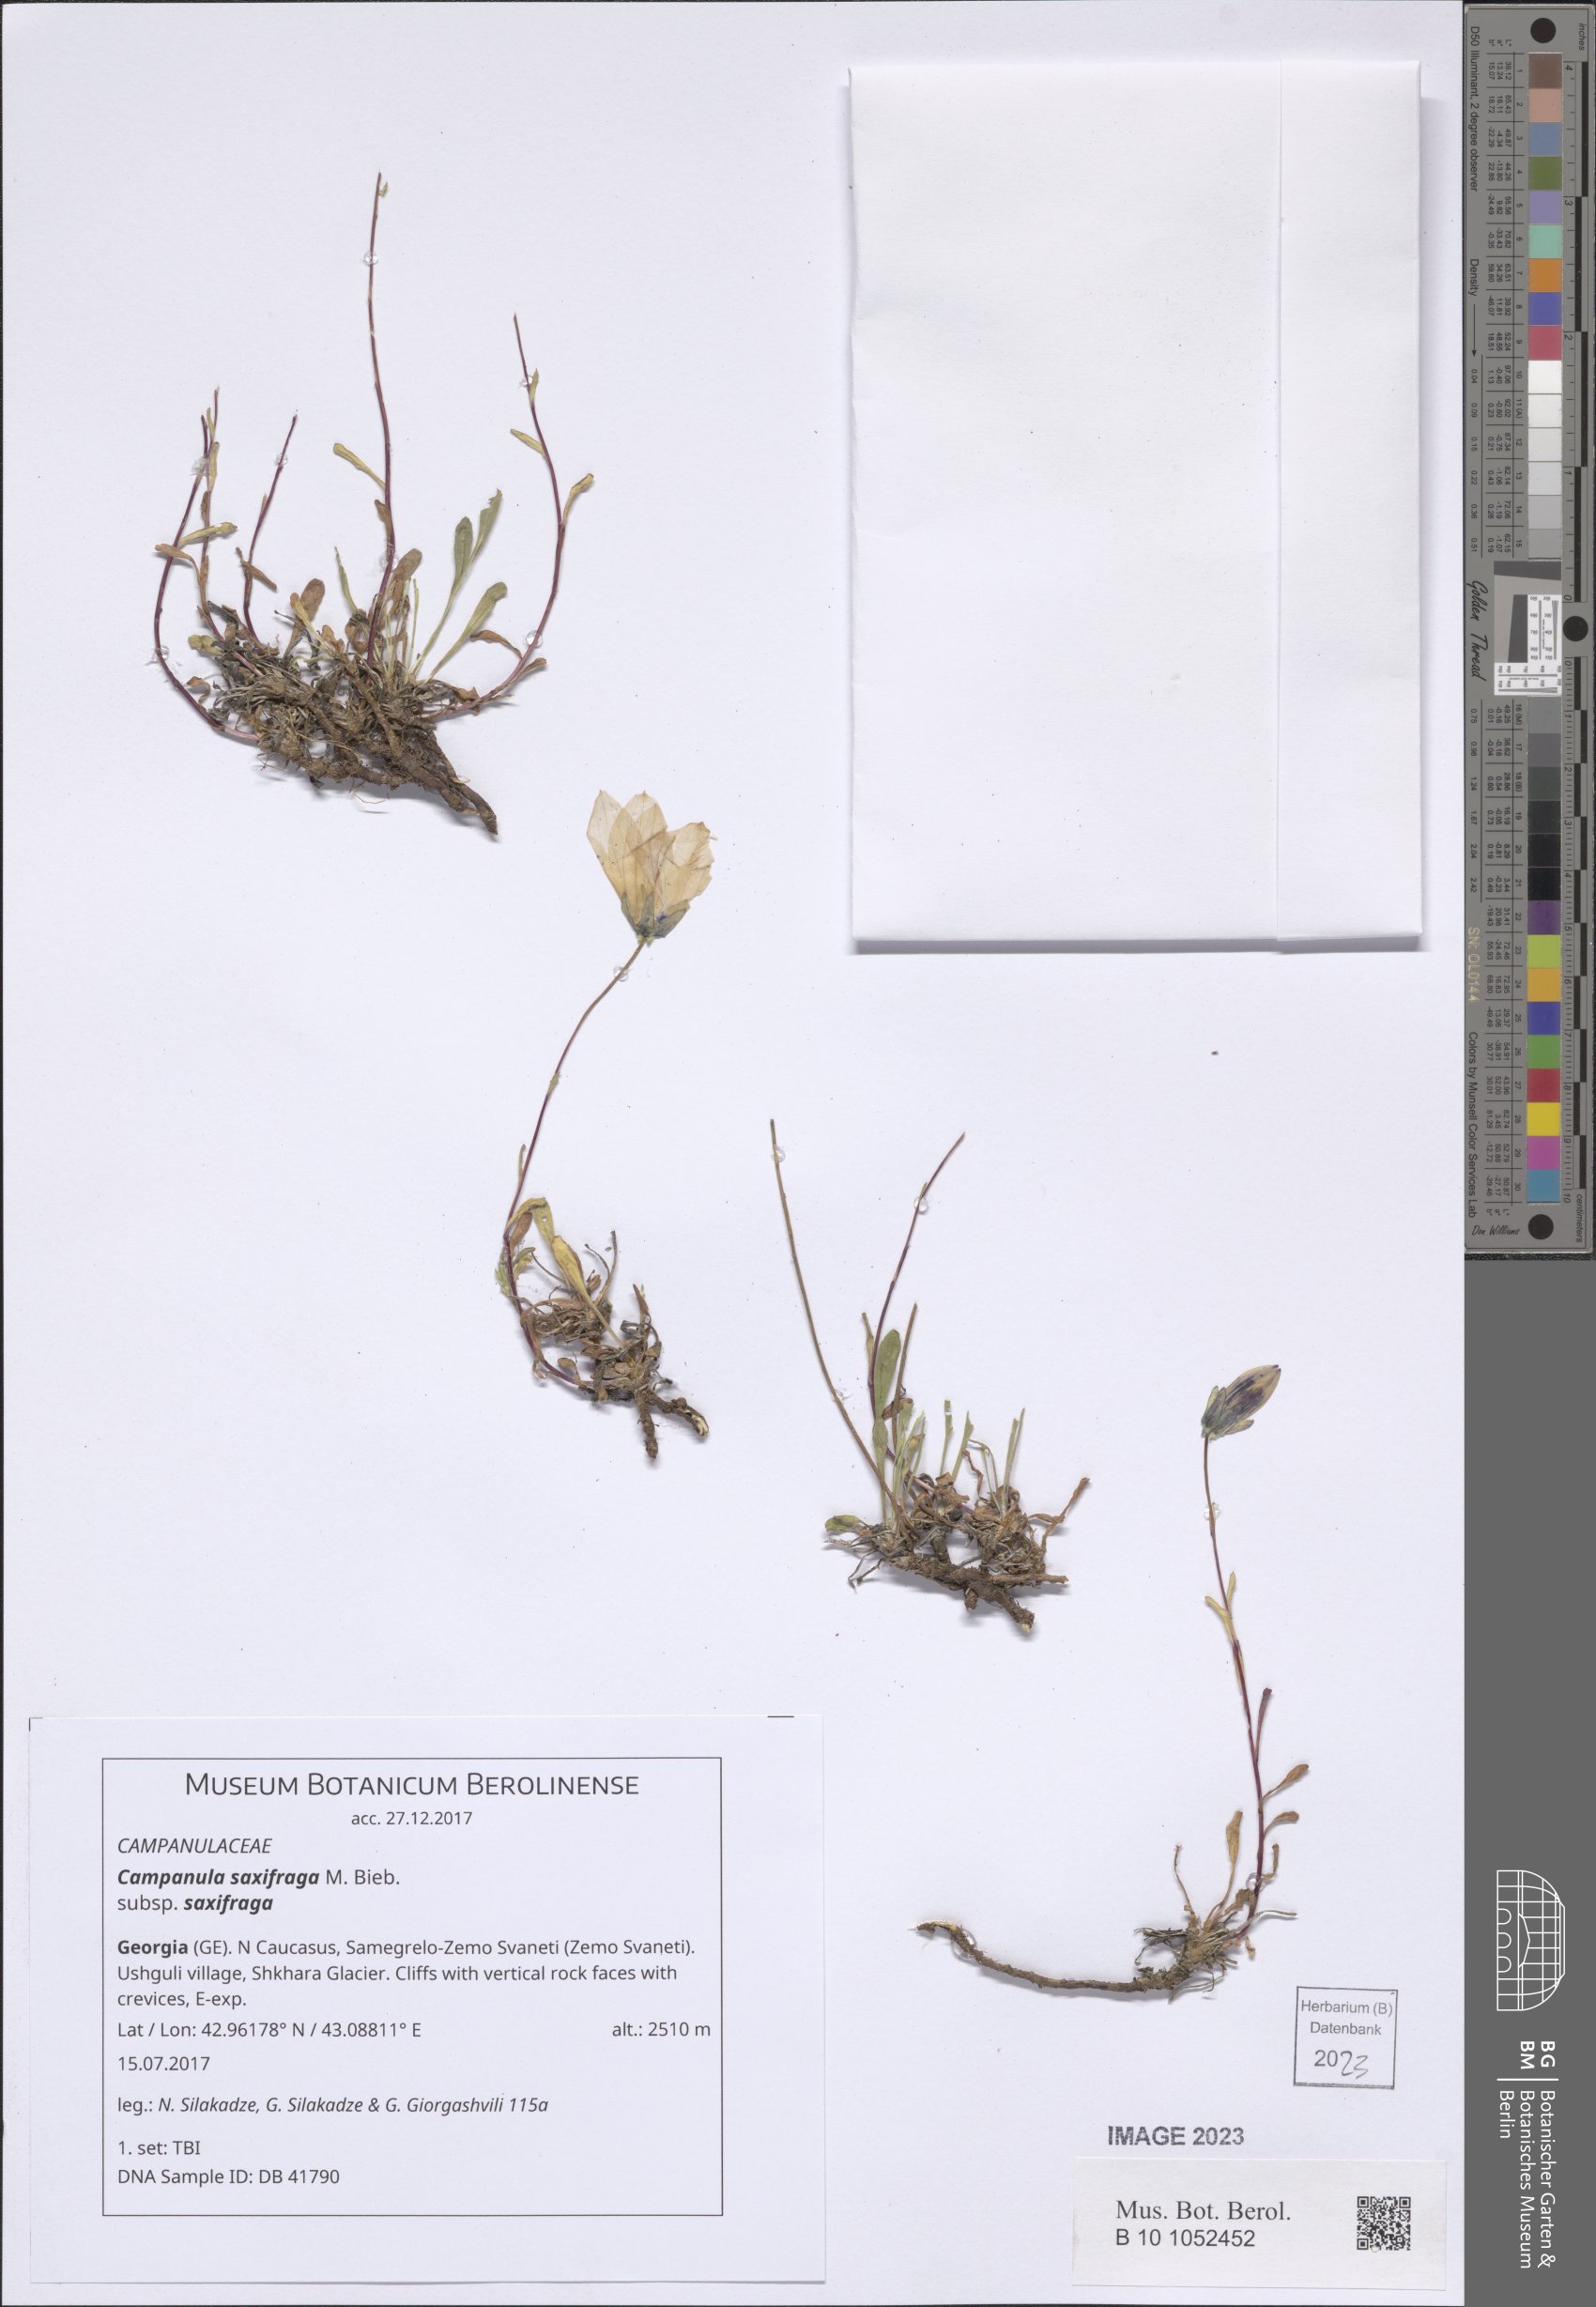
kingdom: Plantae
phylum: Tracheophyta
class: Magnoliopsida
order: Asterales
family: Campanulaceae
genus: Campanula
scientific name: Campanula saxifraga
